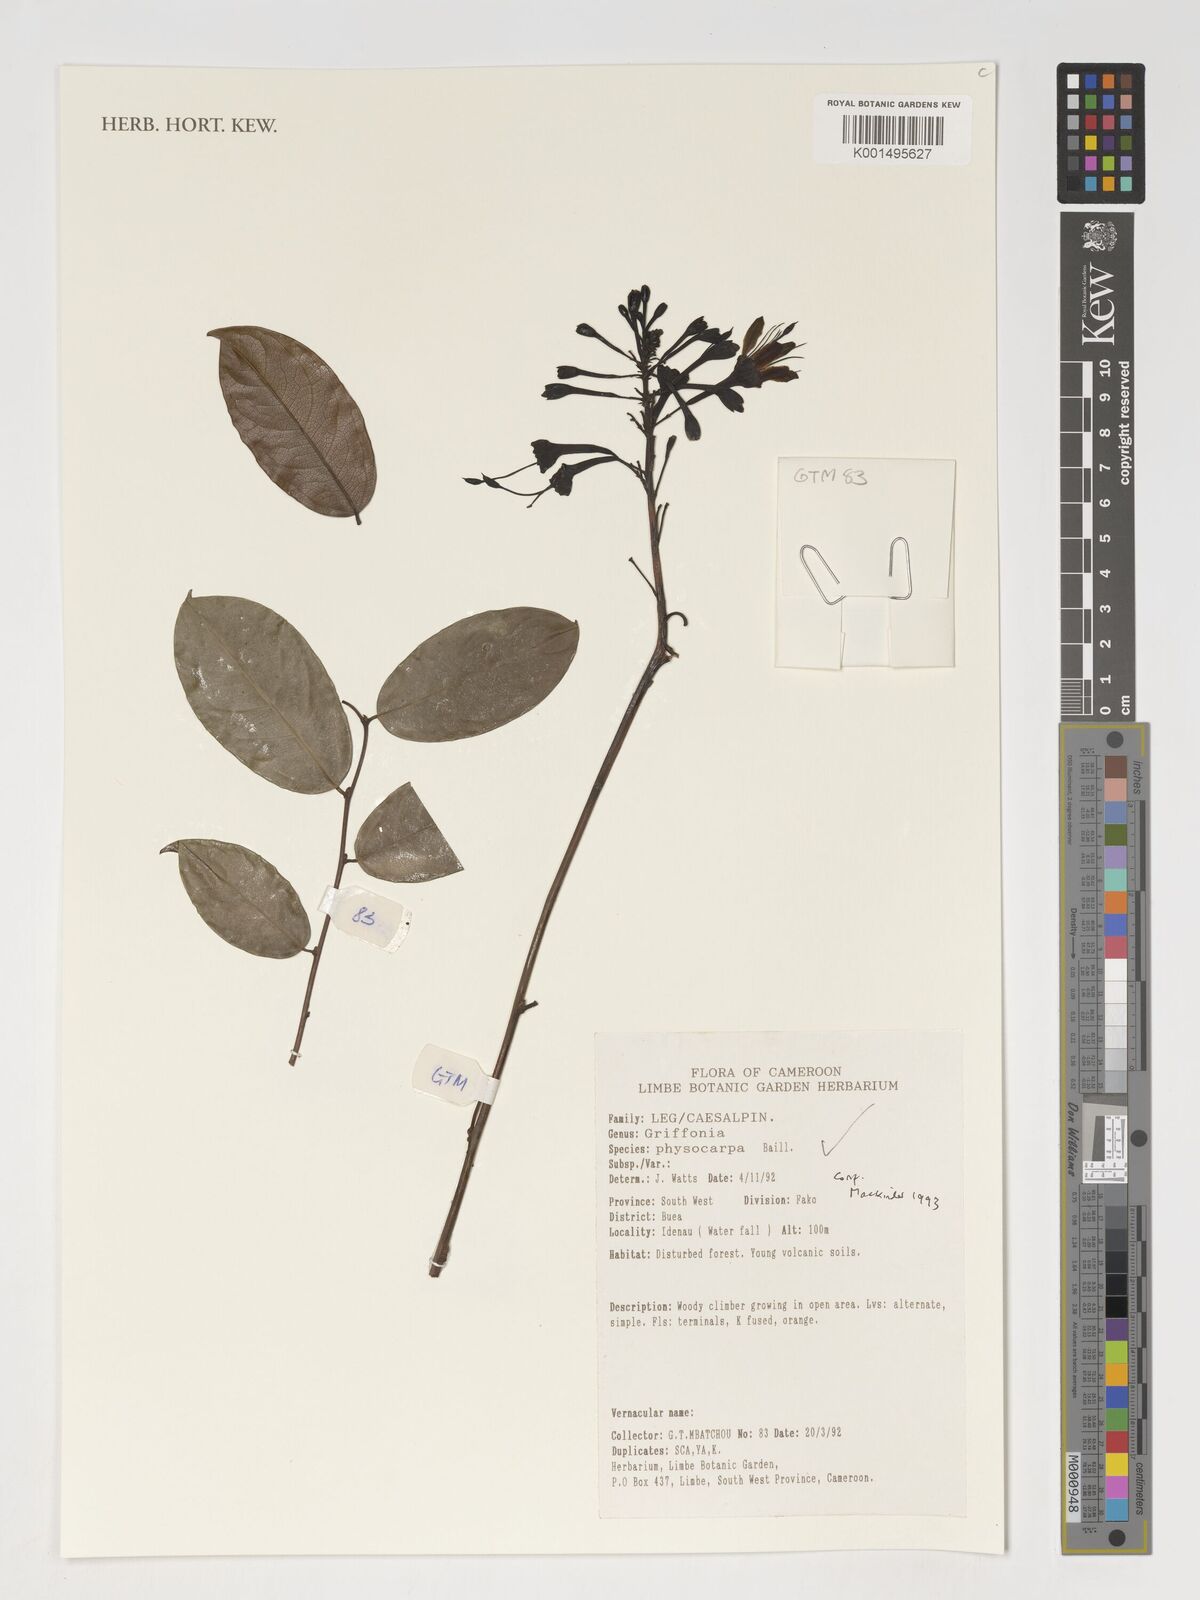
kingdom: Plantae
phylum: Tracheophyta
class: Magnoliopsida
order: Fabales
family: Fabaceae
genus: Griffonia
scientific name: Griffonia physocarpa
